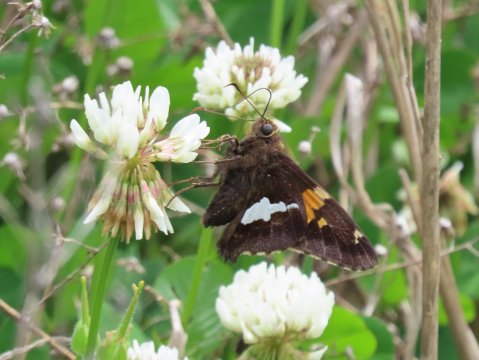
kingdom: Animalia
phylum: Arthropoda
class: Insecta
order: Lepidoptera
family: Hesperiidae
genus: Epargyreus
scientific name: Epargyreus clarus
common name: Silver-spotted Skipper
